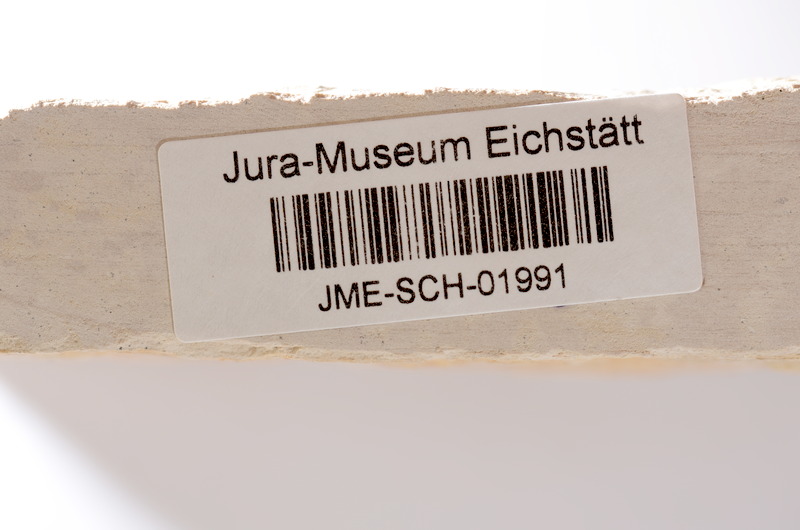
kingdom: Animalia
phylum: Chordata
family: Aspidorhynchidae
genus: Aspidorhynchus
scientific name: Aspidorhynchus
